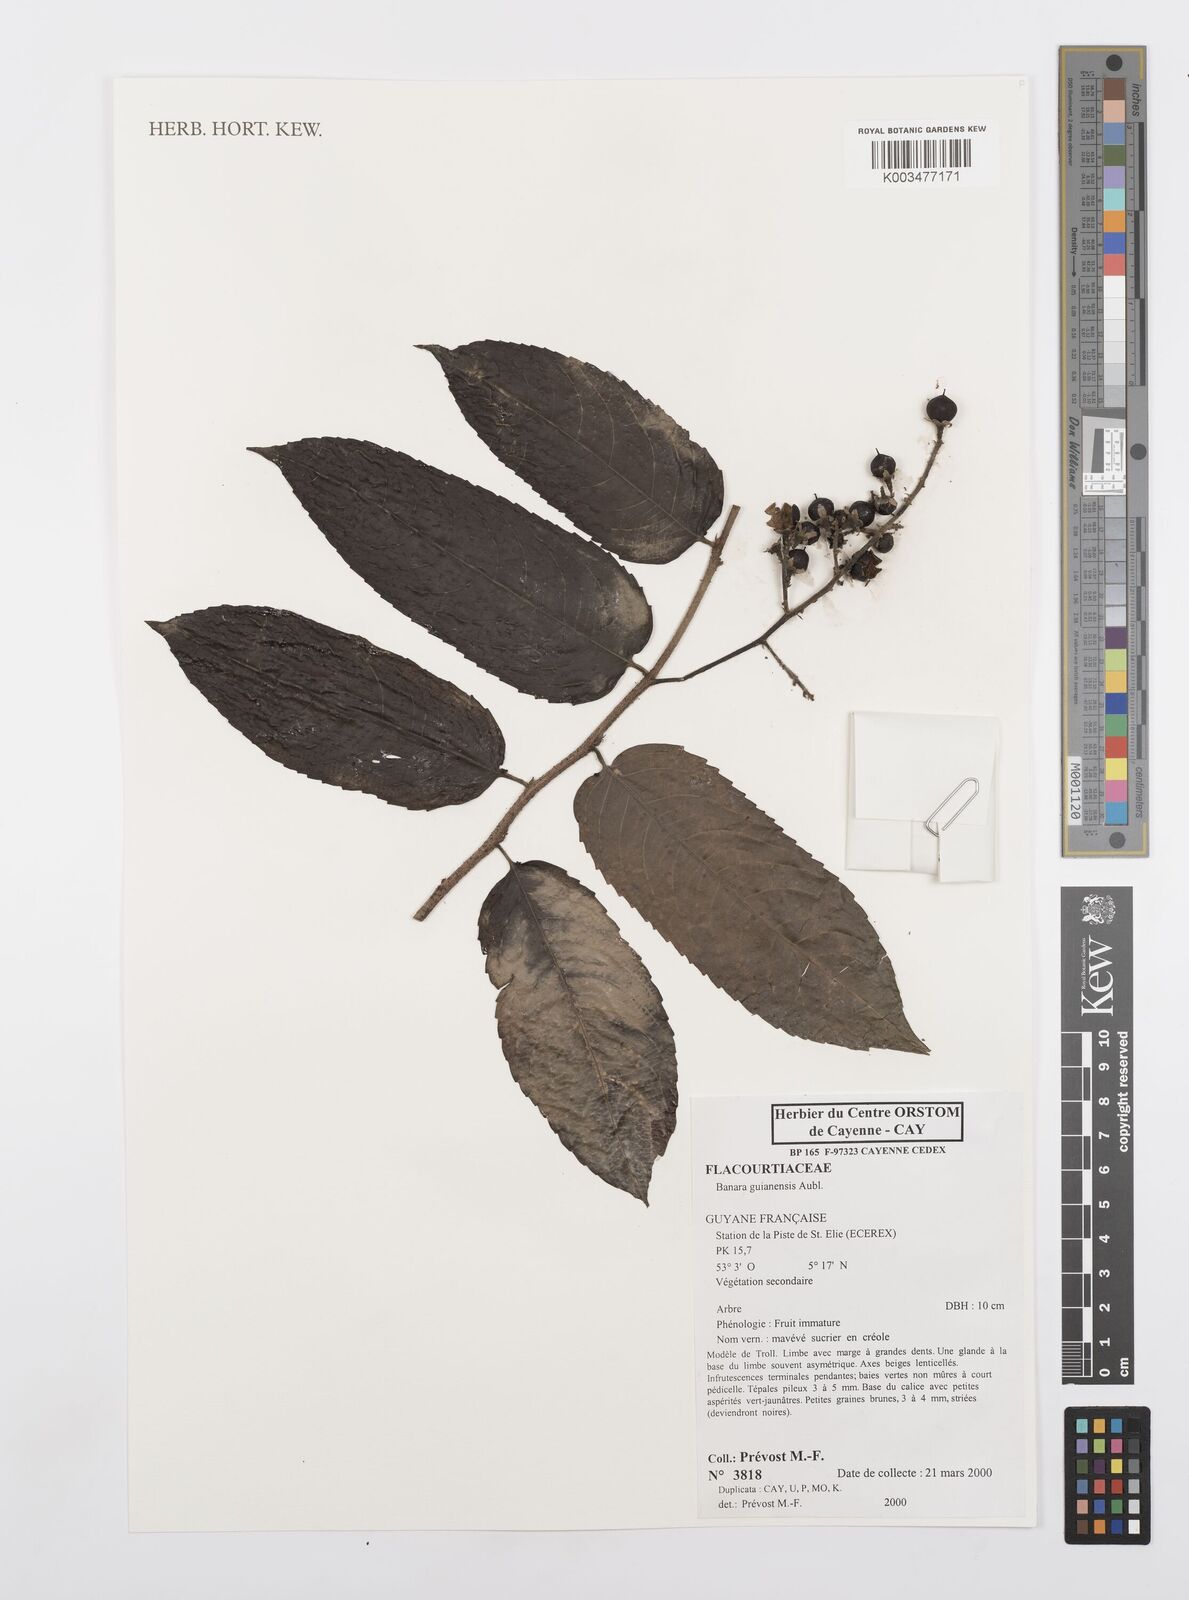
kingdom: Plantae
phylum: Tracheophyta
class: Magnoliopsida
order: Malpighiales
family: Salicaceae
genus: Banara
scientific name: Banara guianensis
